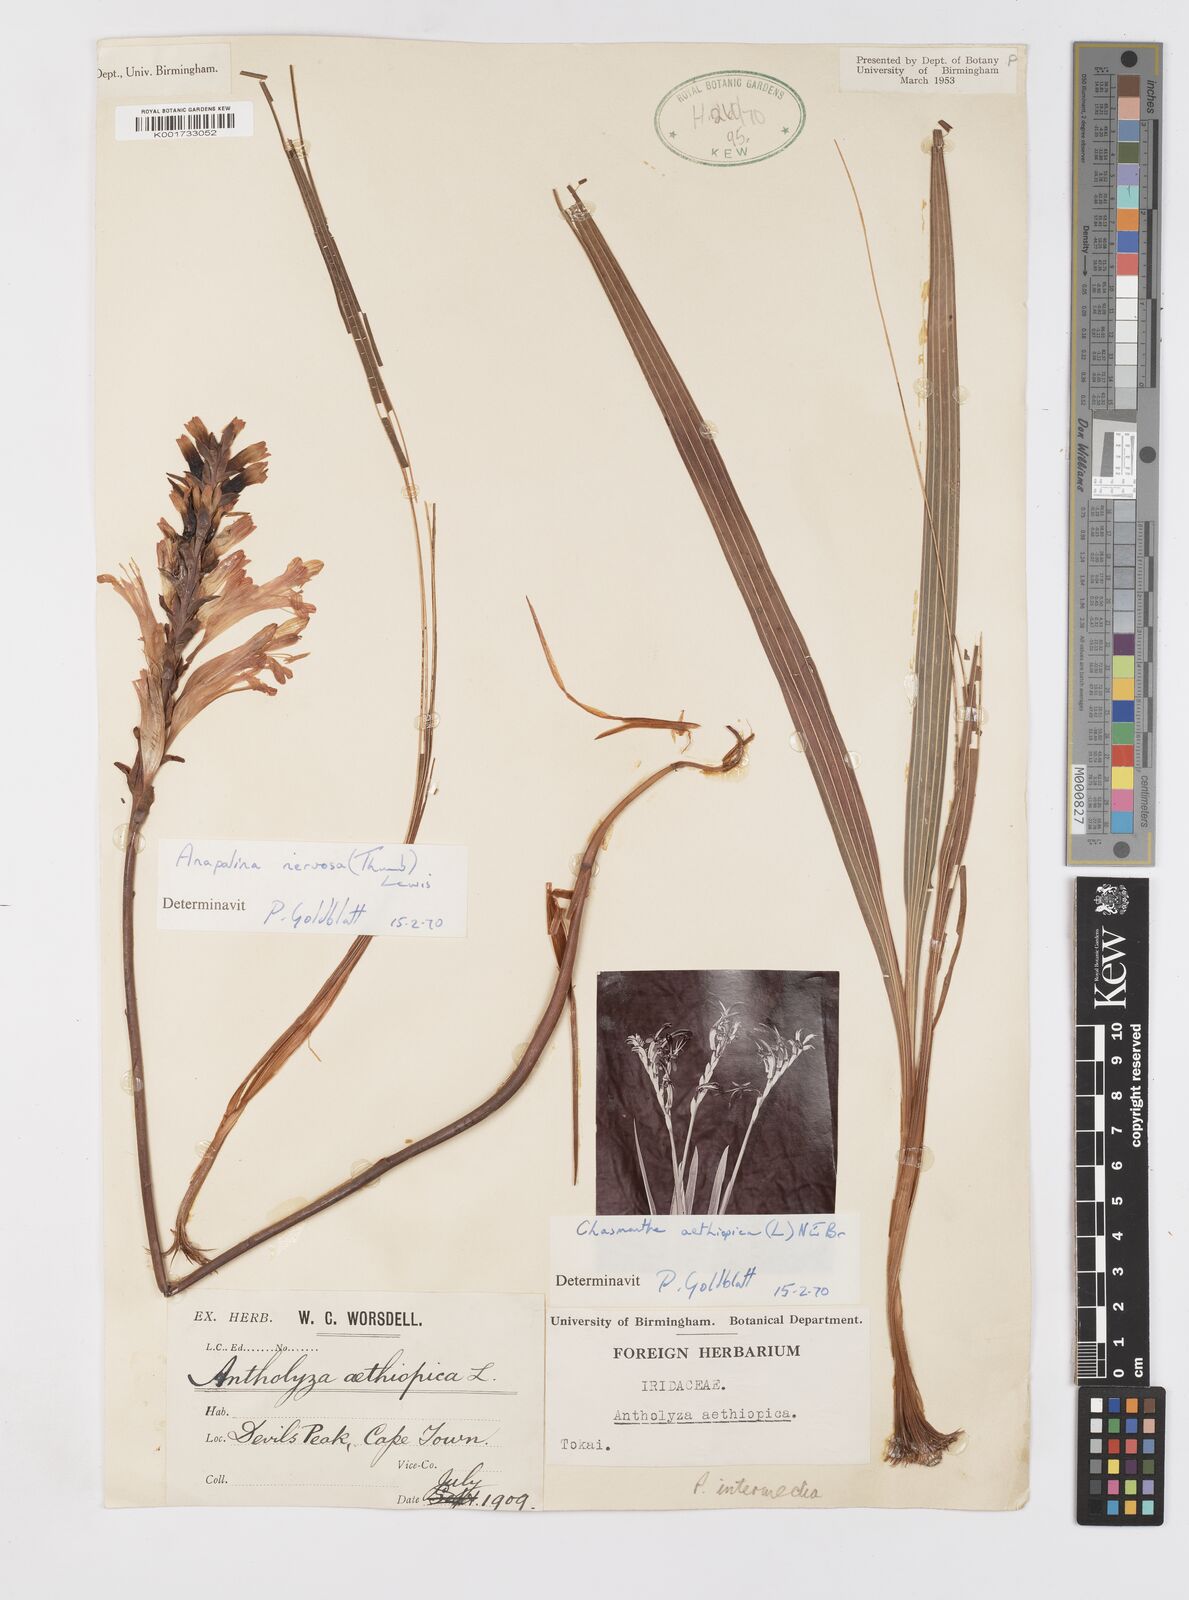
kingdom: Plantae
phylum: Tracheophyta
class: Liliopsida
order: Asparagales
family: Iridaceae
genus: Tritoniopsis
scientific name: Tritoniopsis nervosa
